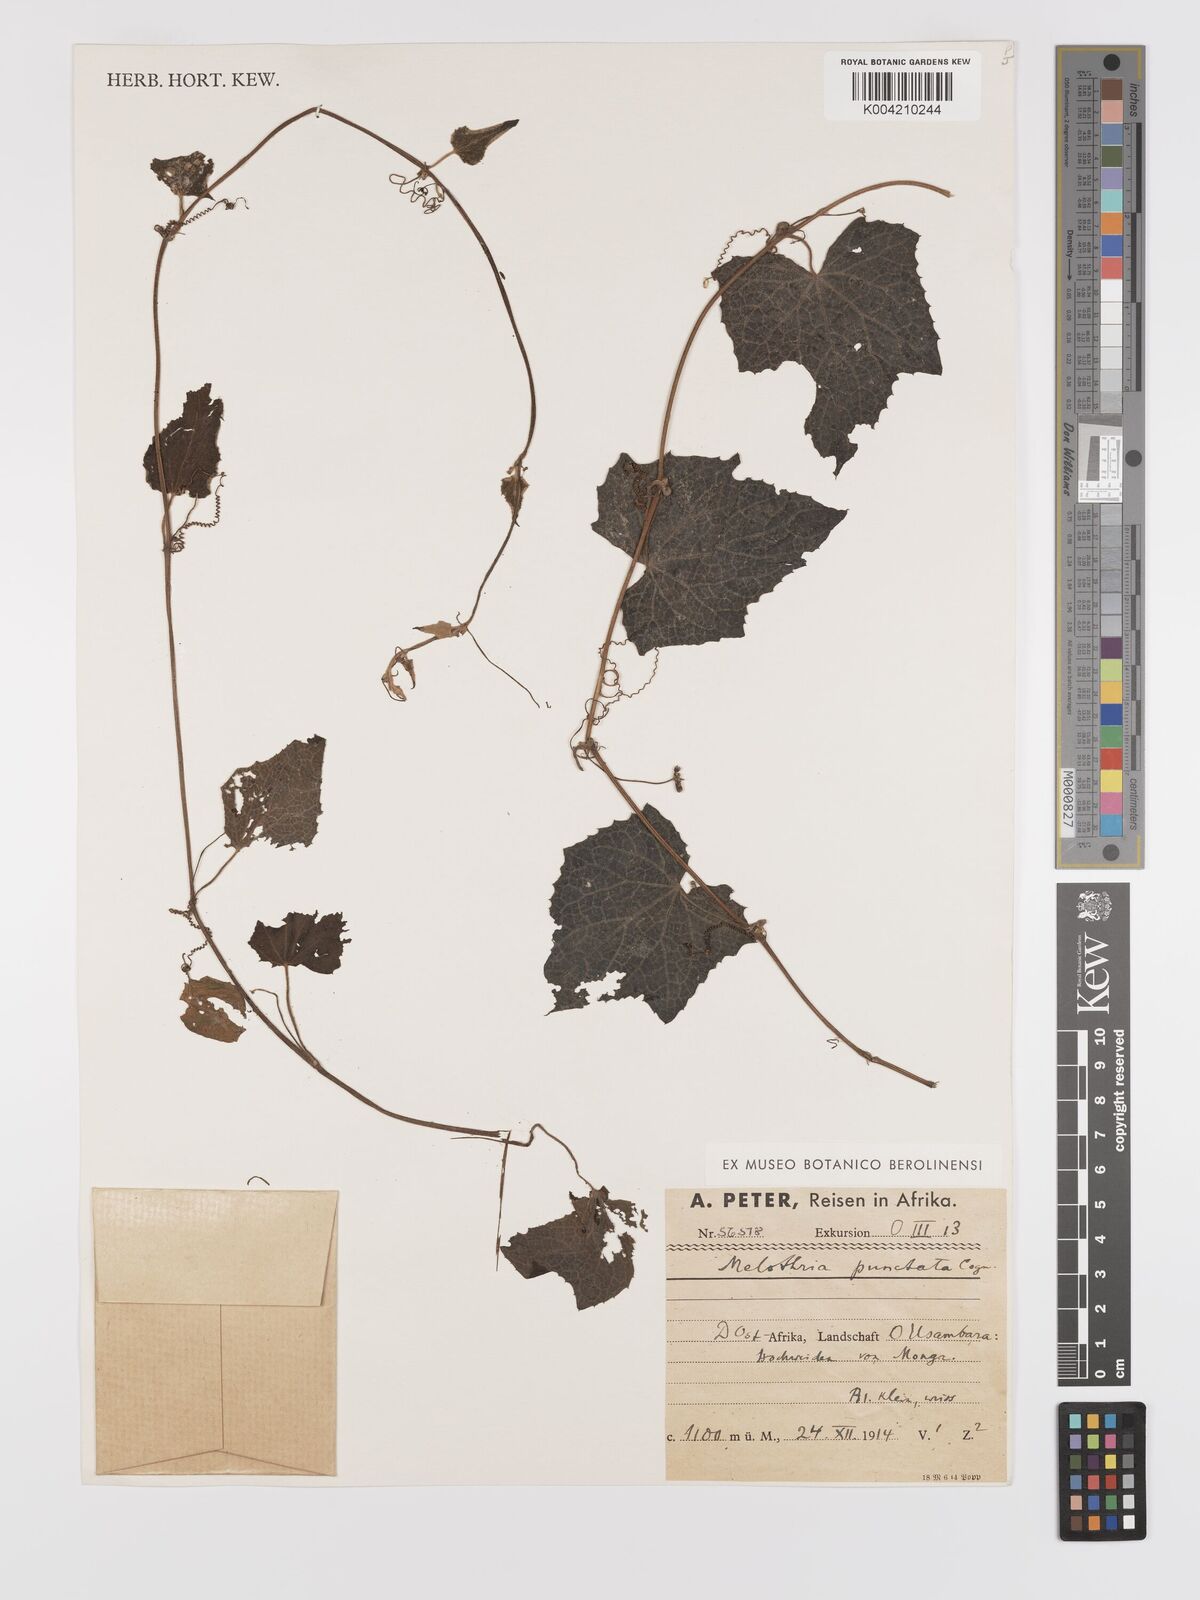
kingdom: Plantae
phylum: Tracheophyta
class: Magnoliopsida
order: Cucurbitales
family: Cucurbitaceae
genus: Zehneria
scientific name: Zehneria scabra
